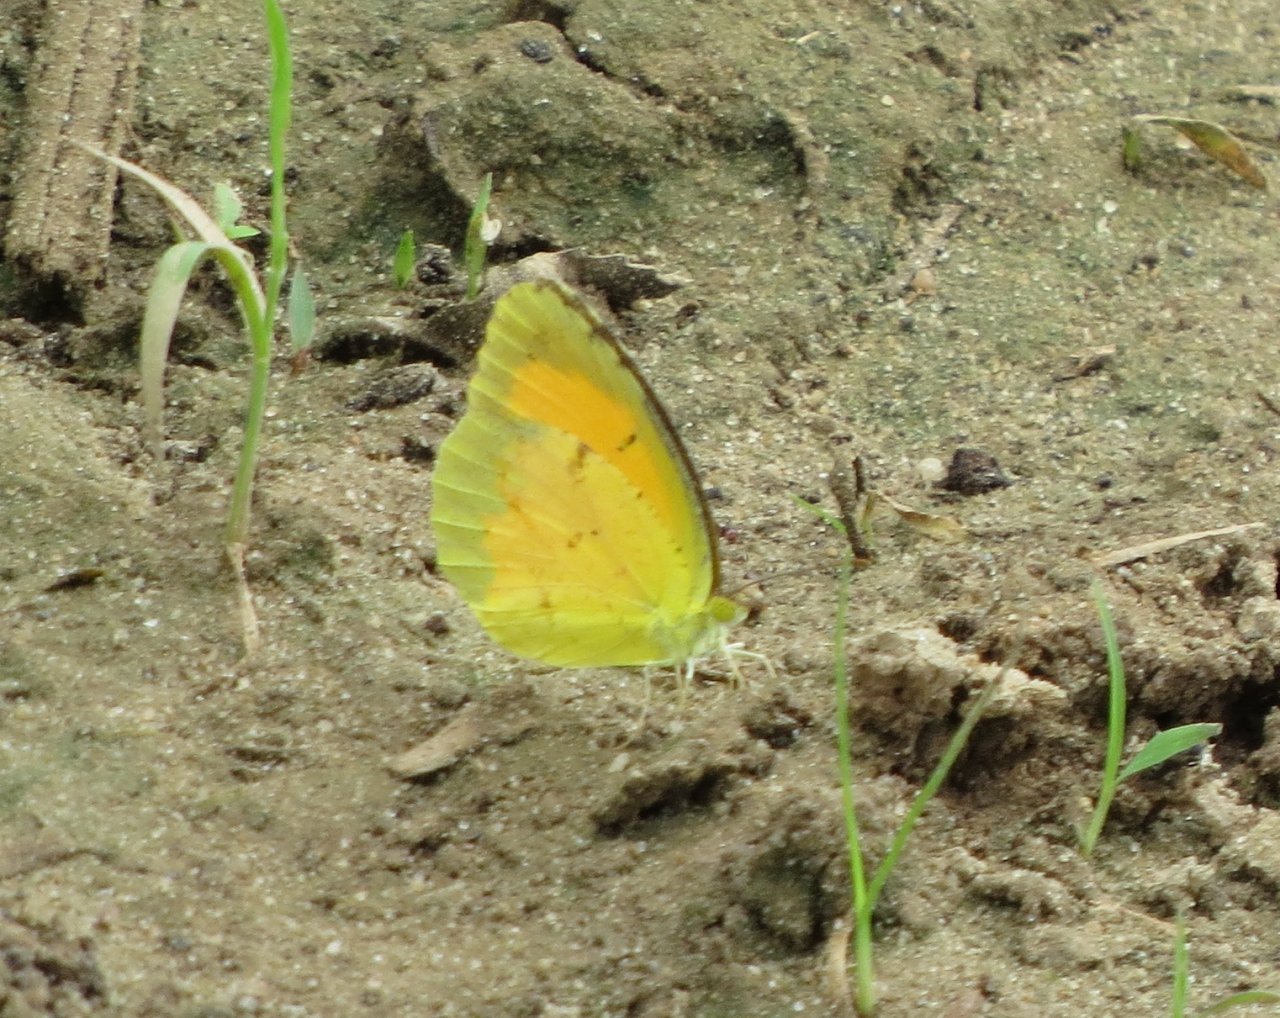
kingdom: Animalia
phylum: Arthropoda
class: Insecta
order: Lepidoptera
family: Pieridae
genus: Abaeis
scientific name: Abaeis nicippe
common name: Sleepy Orange
